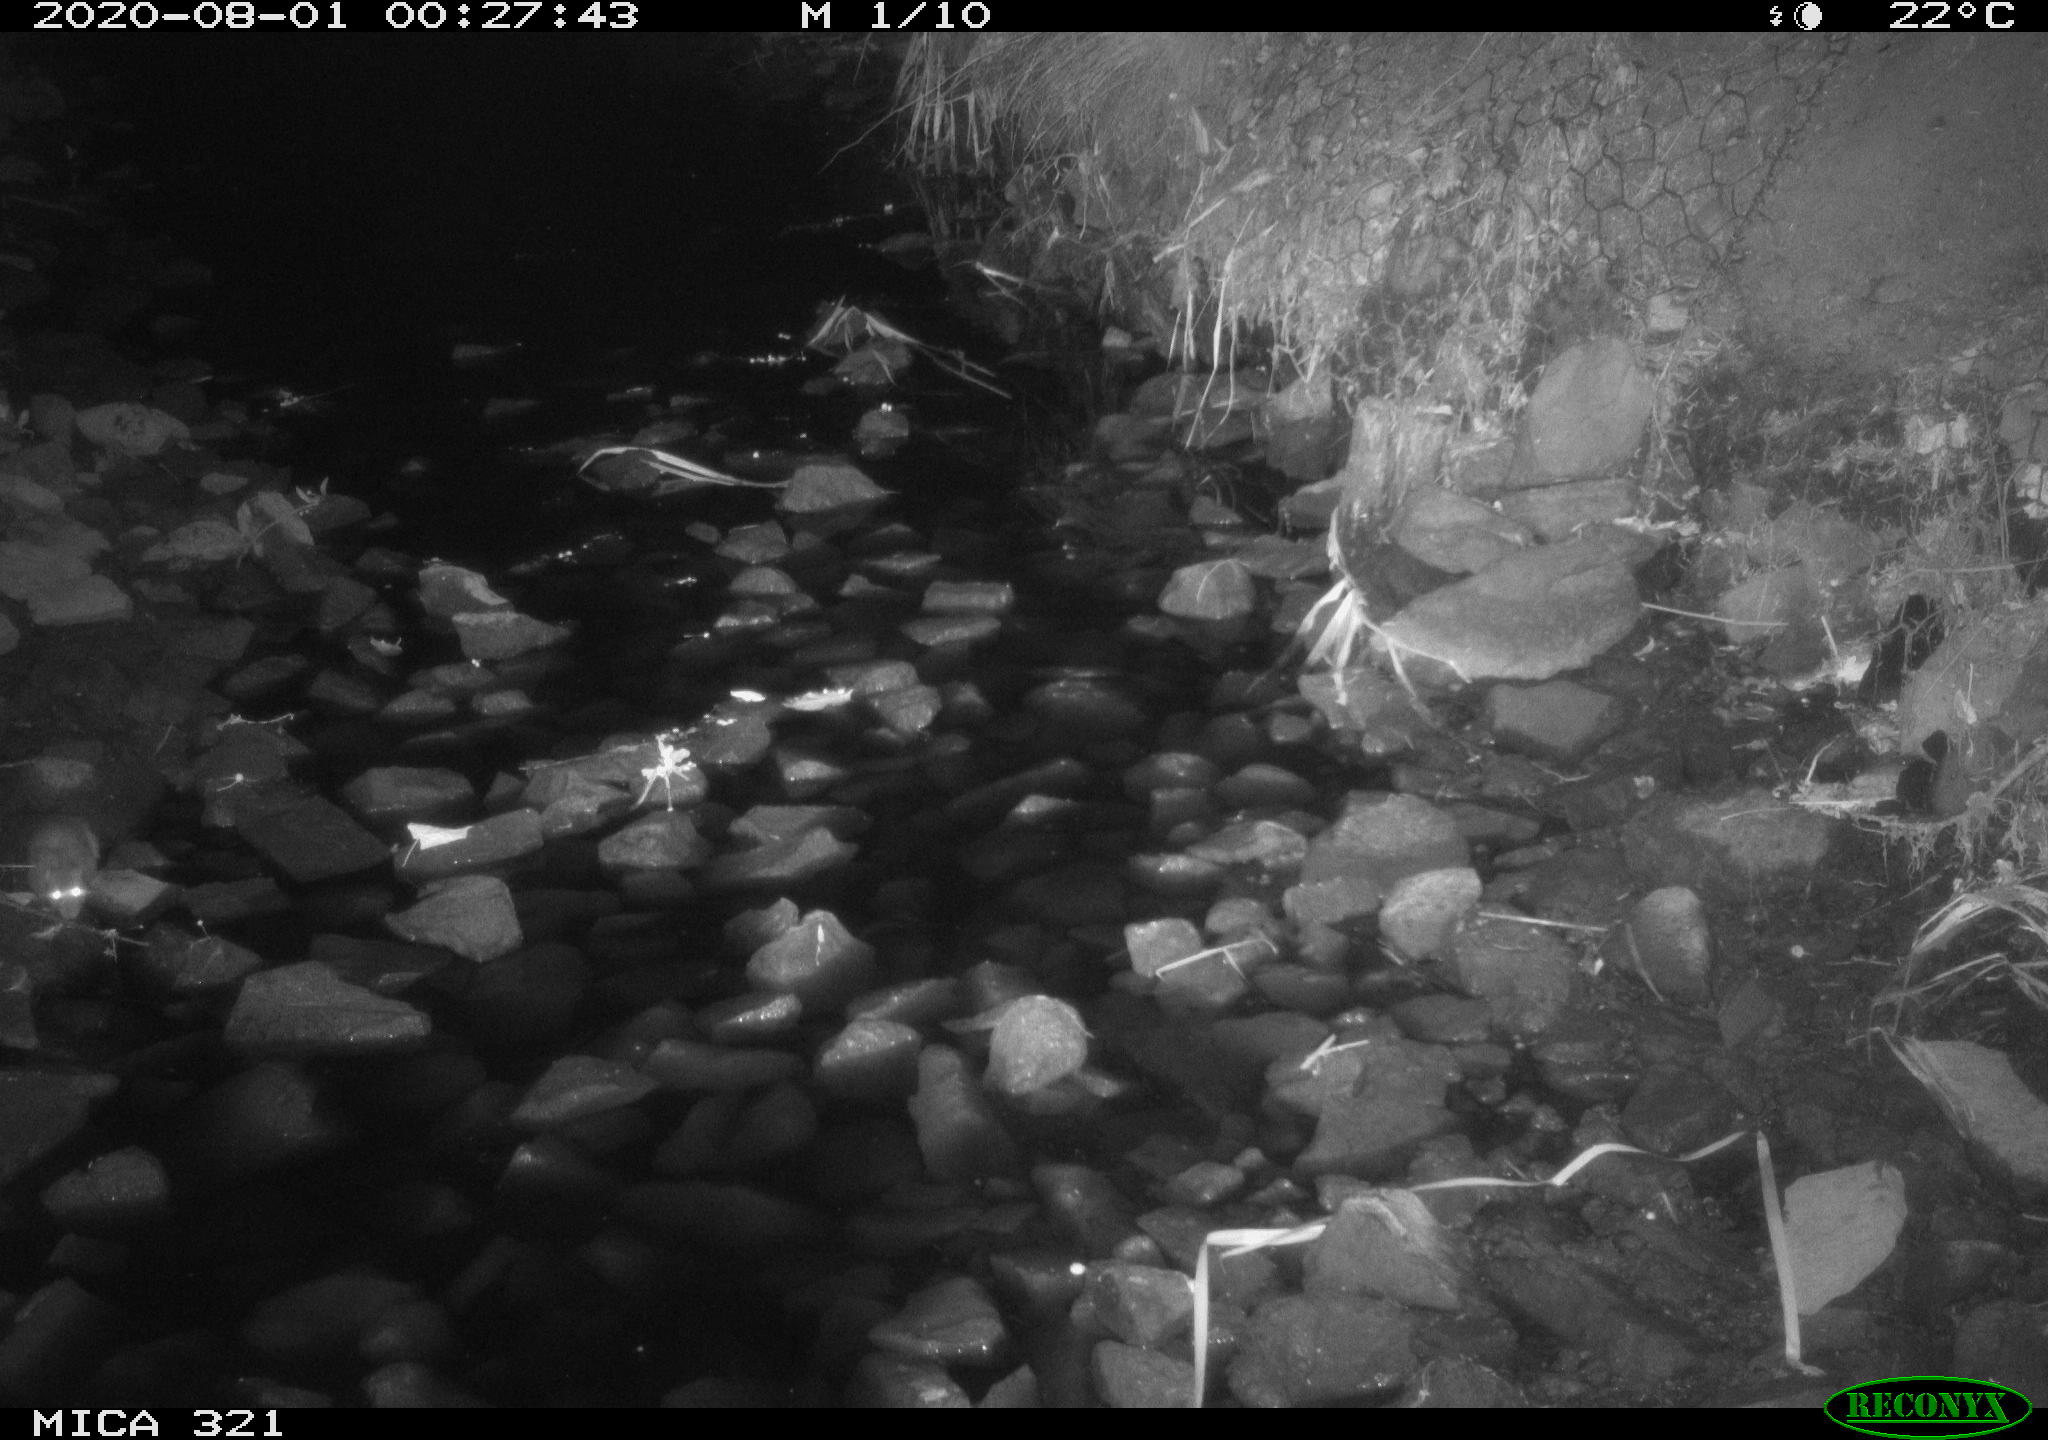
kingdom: Animalia
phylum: Chordata
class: Mammalia
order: Rodentia
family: Muridae
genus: Rattus
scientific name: Rattus norvegicus
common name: Brown rat
